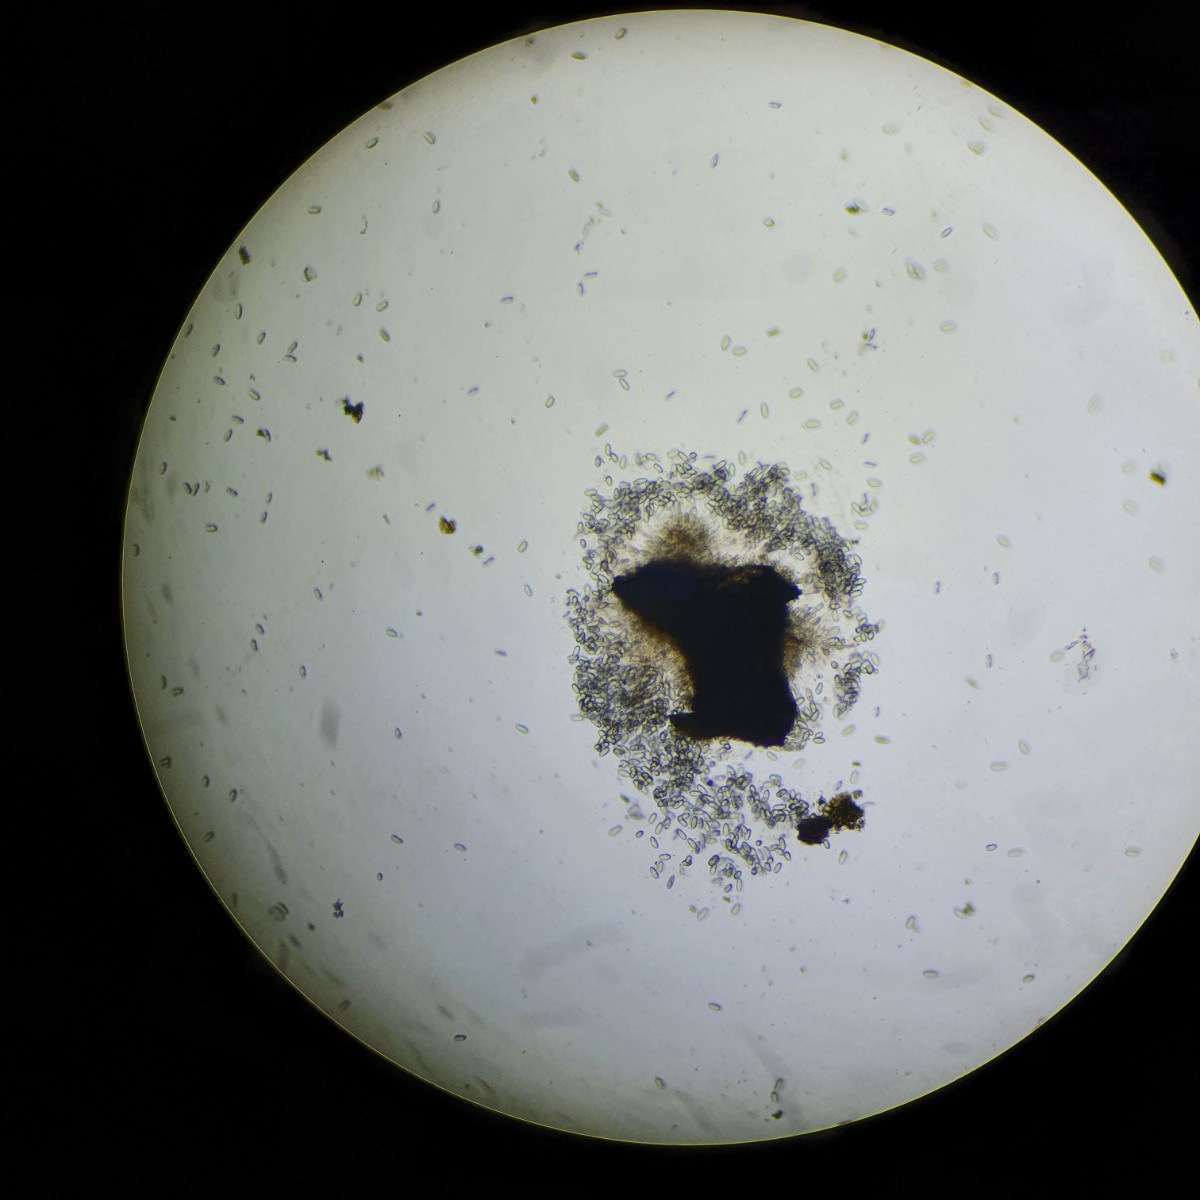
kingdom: Fungi
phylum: Ascomycota
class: Sordariomycetes
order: Diaporthales
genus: Botryodiplodia
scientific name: Botryodiplodia fraxini
